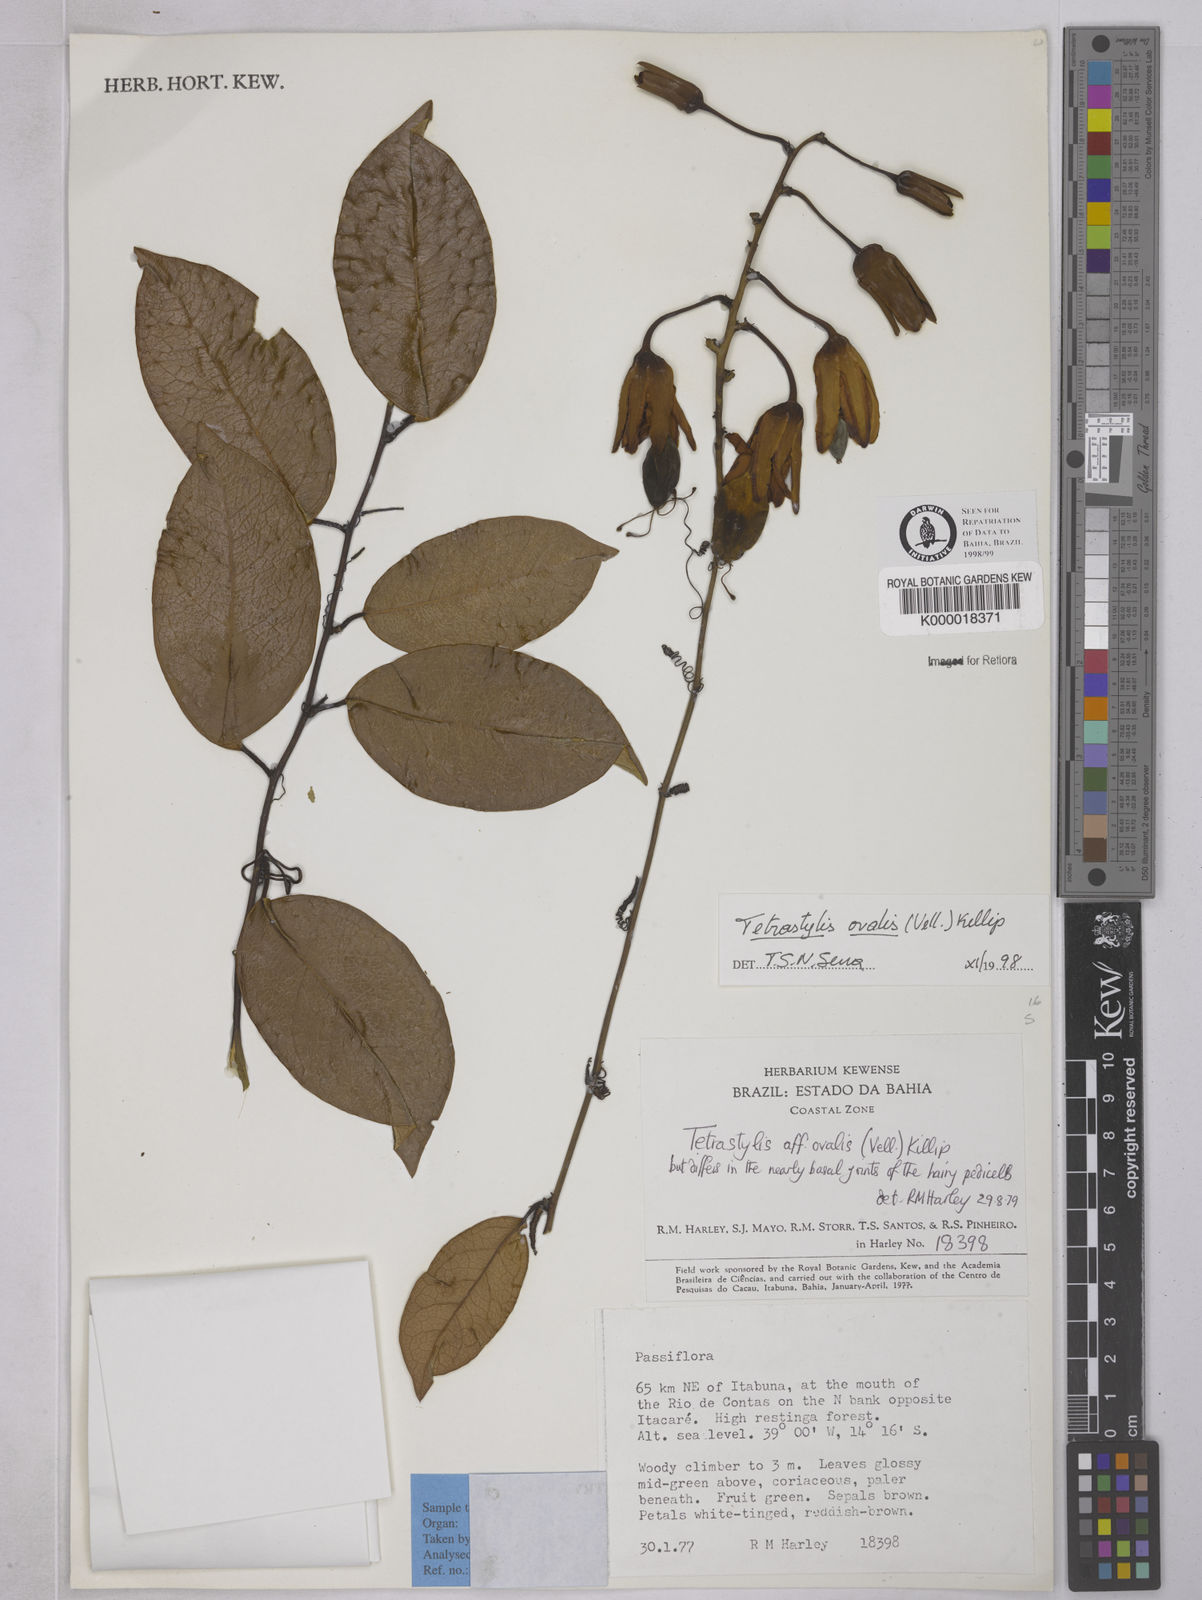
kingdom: Plantae
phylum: Tracheophyta
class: Magnoliopsida
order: Malpighiales
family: Passifloraceae
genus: Passiflora
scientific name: Passiflora ovalis
